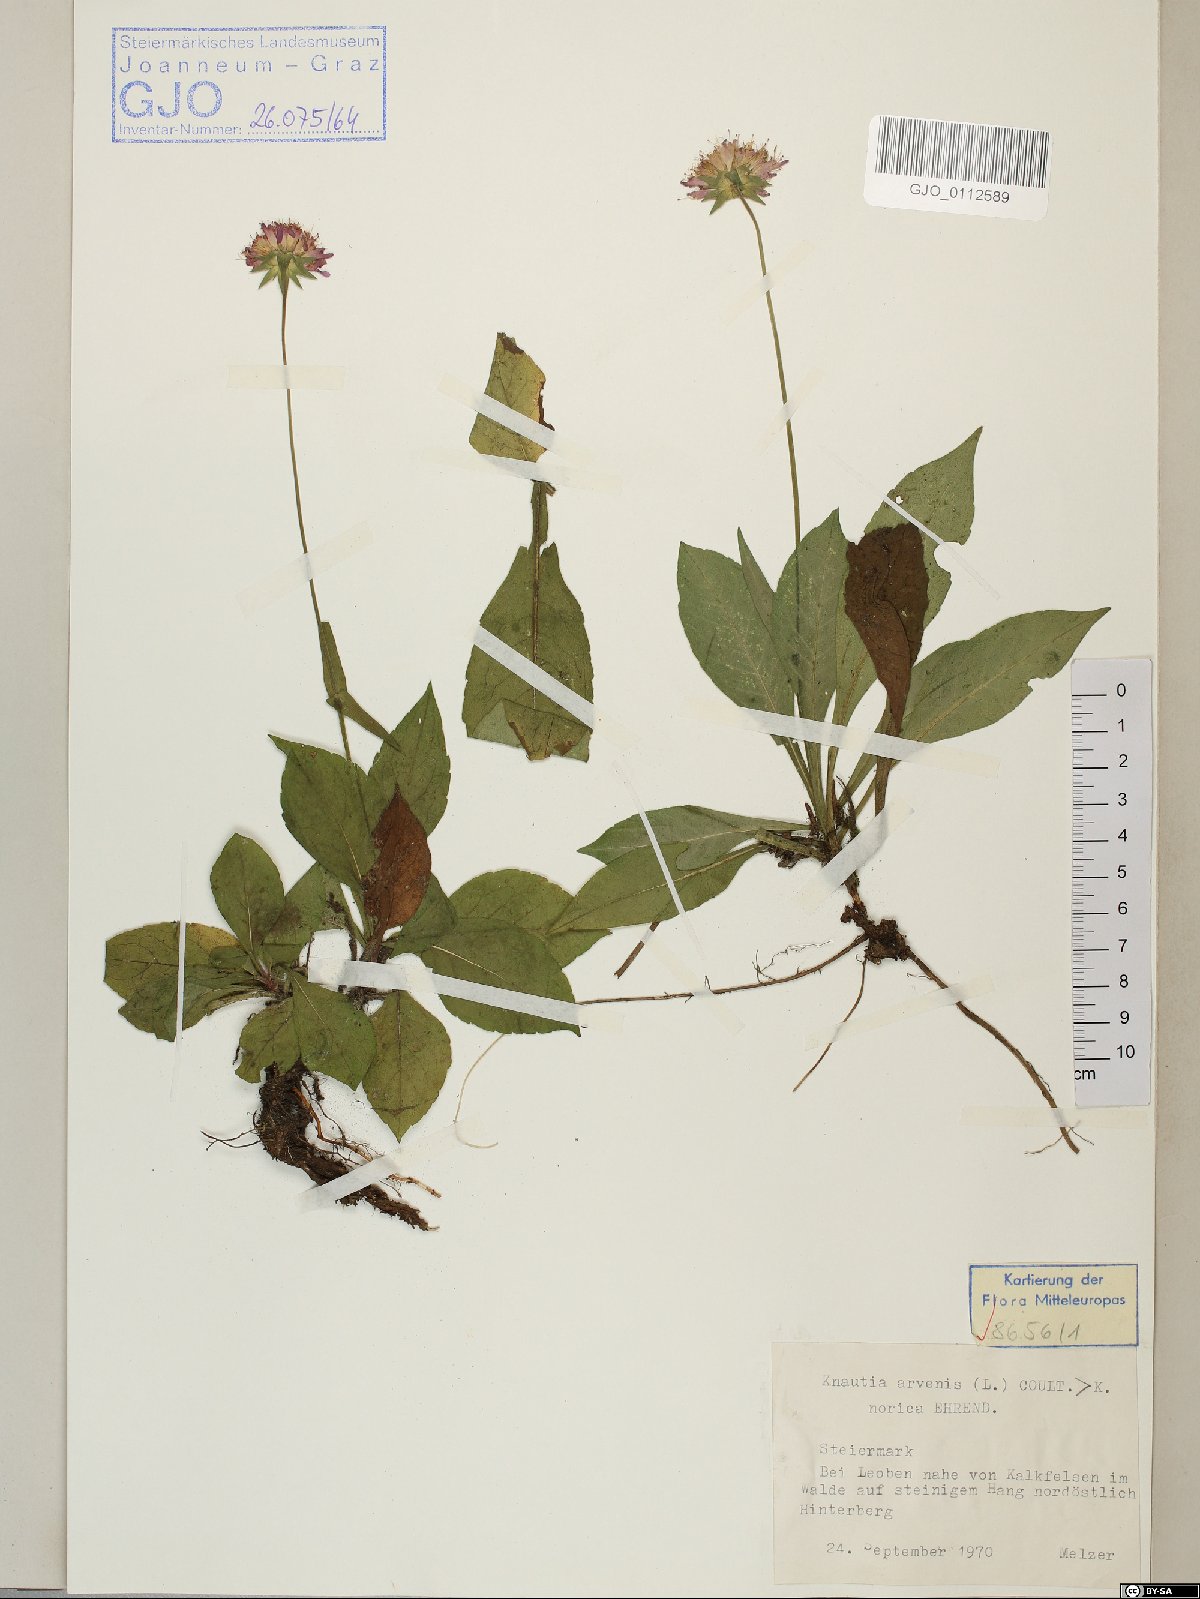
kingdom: Plantae
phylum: Tracheophyta
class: Magnoliopsida
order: Dipsacales
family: Dipsacaceae
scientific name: Dipsacaceae
